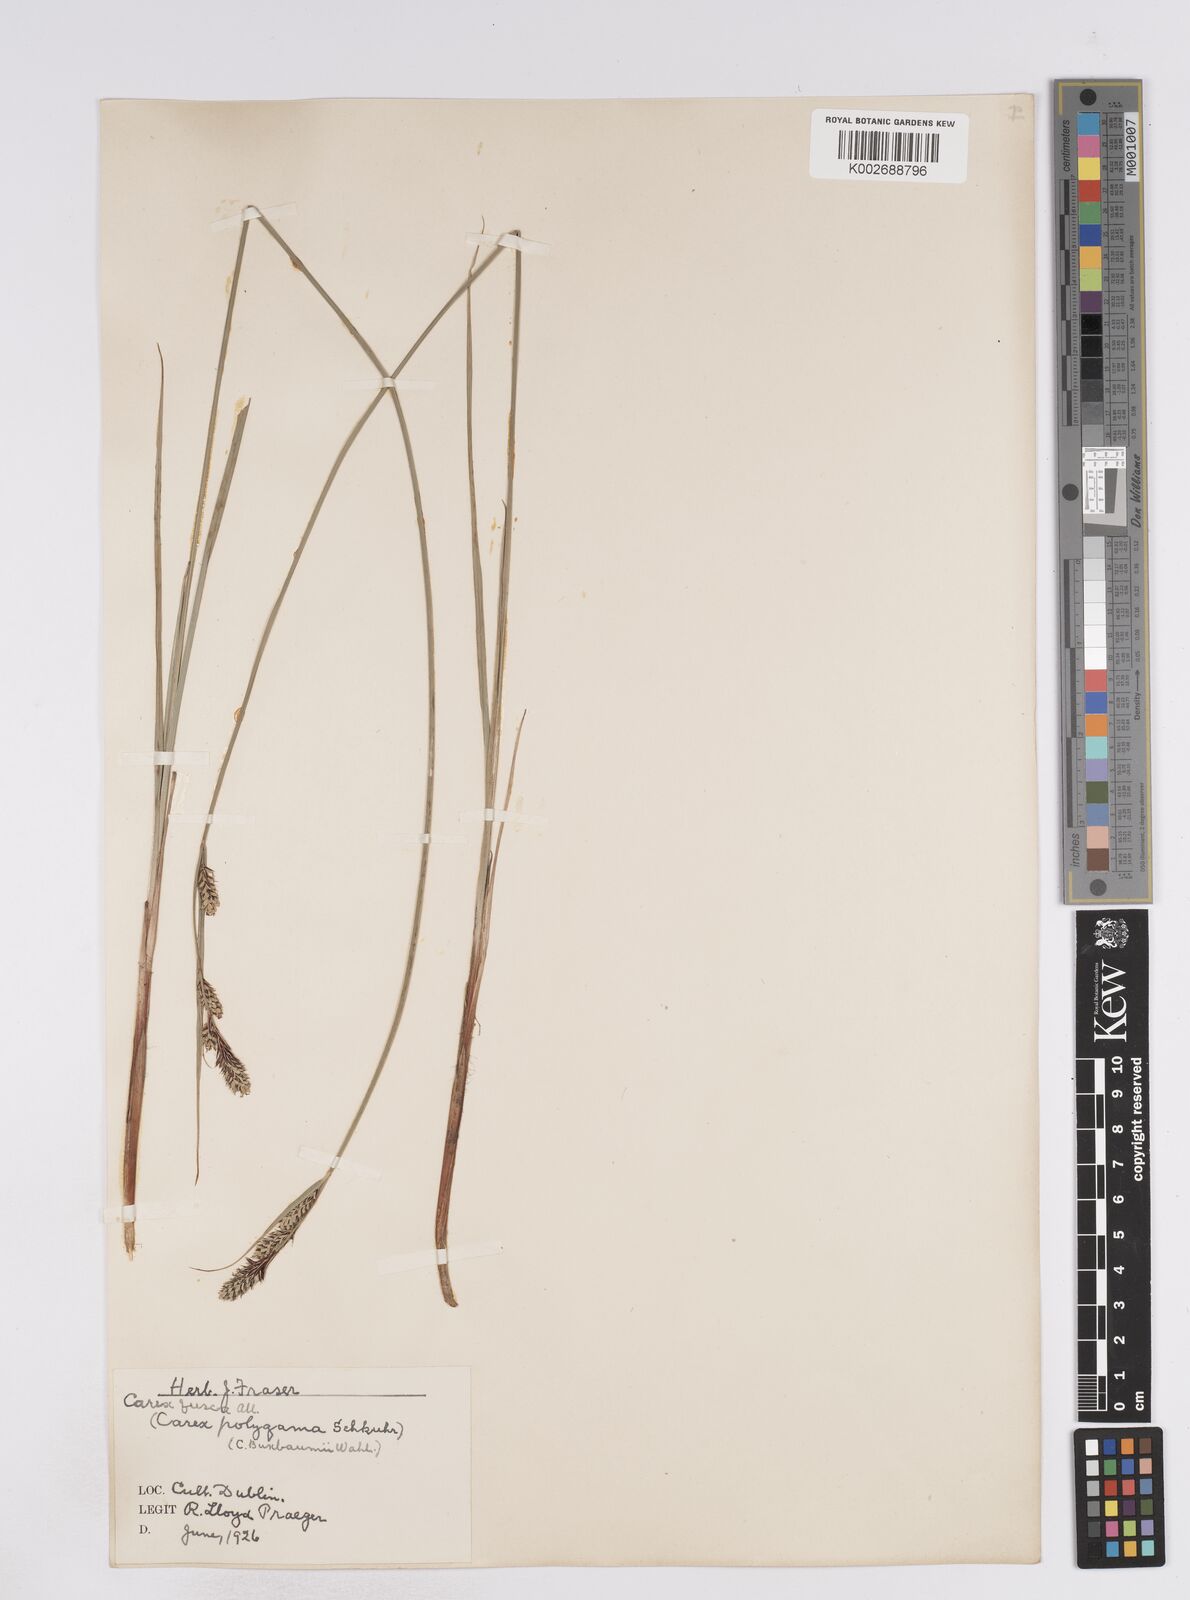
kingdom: Plantae
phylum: Tracheophyta
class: Liliopsida
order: Poales
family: Cyperaceae
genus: Carex
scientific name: Carex buxbaumii
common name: Club sedge
